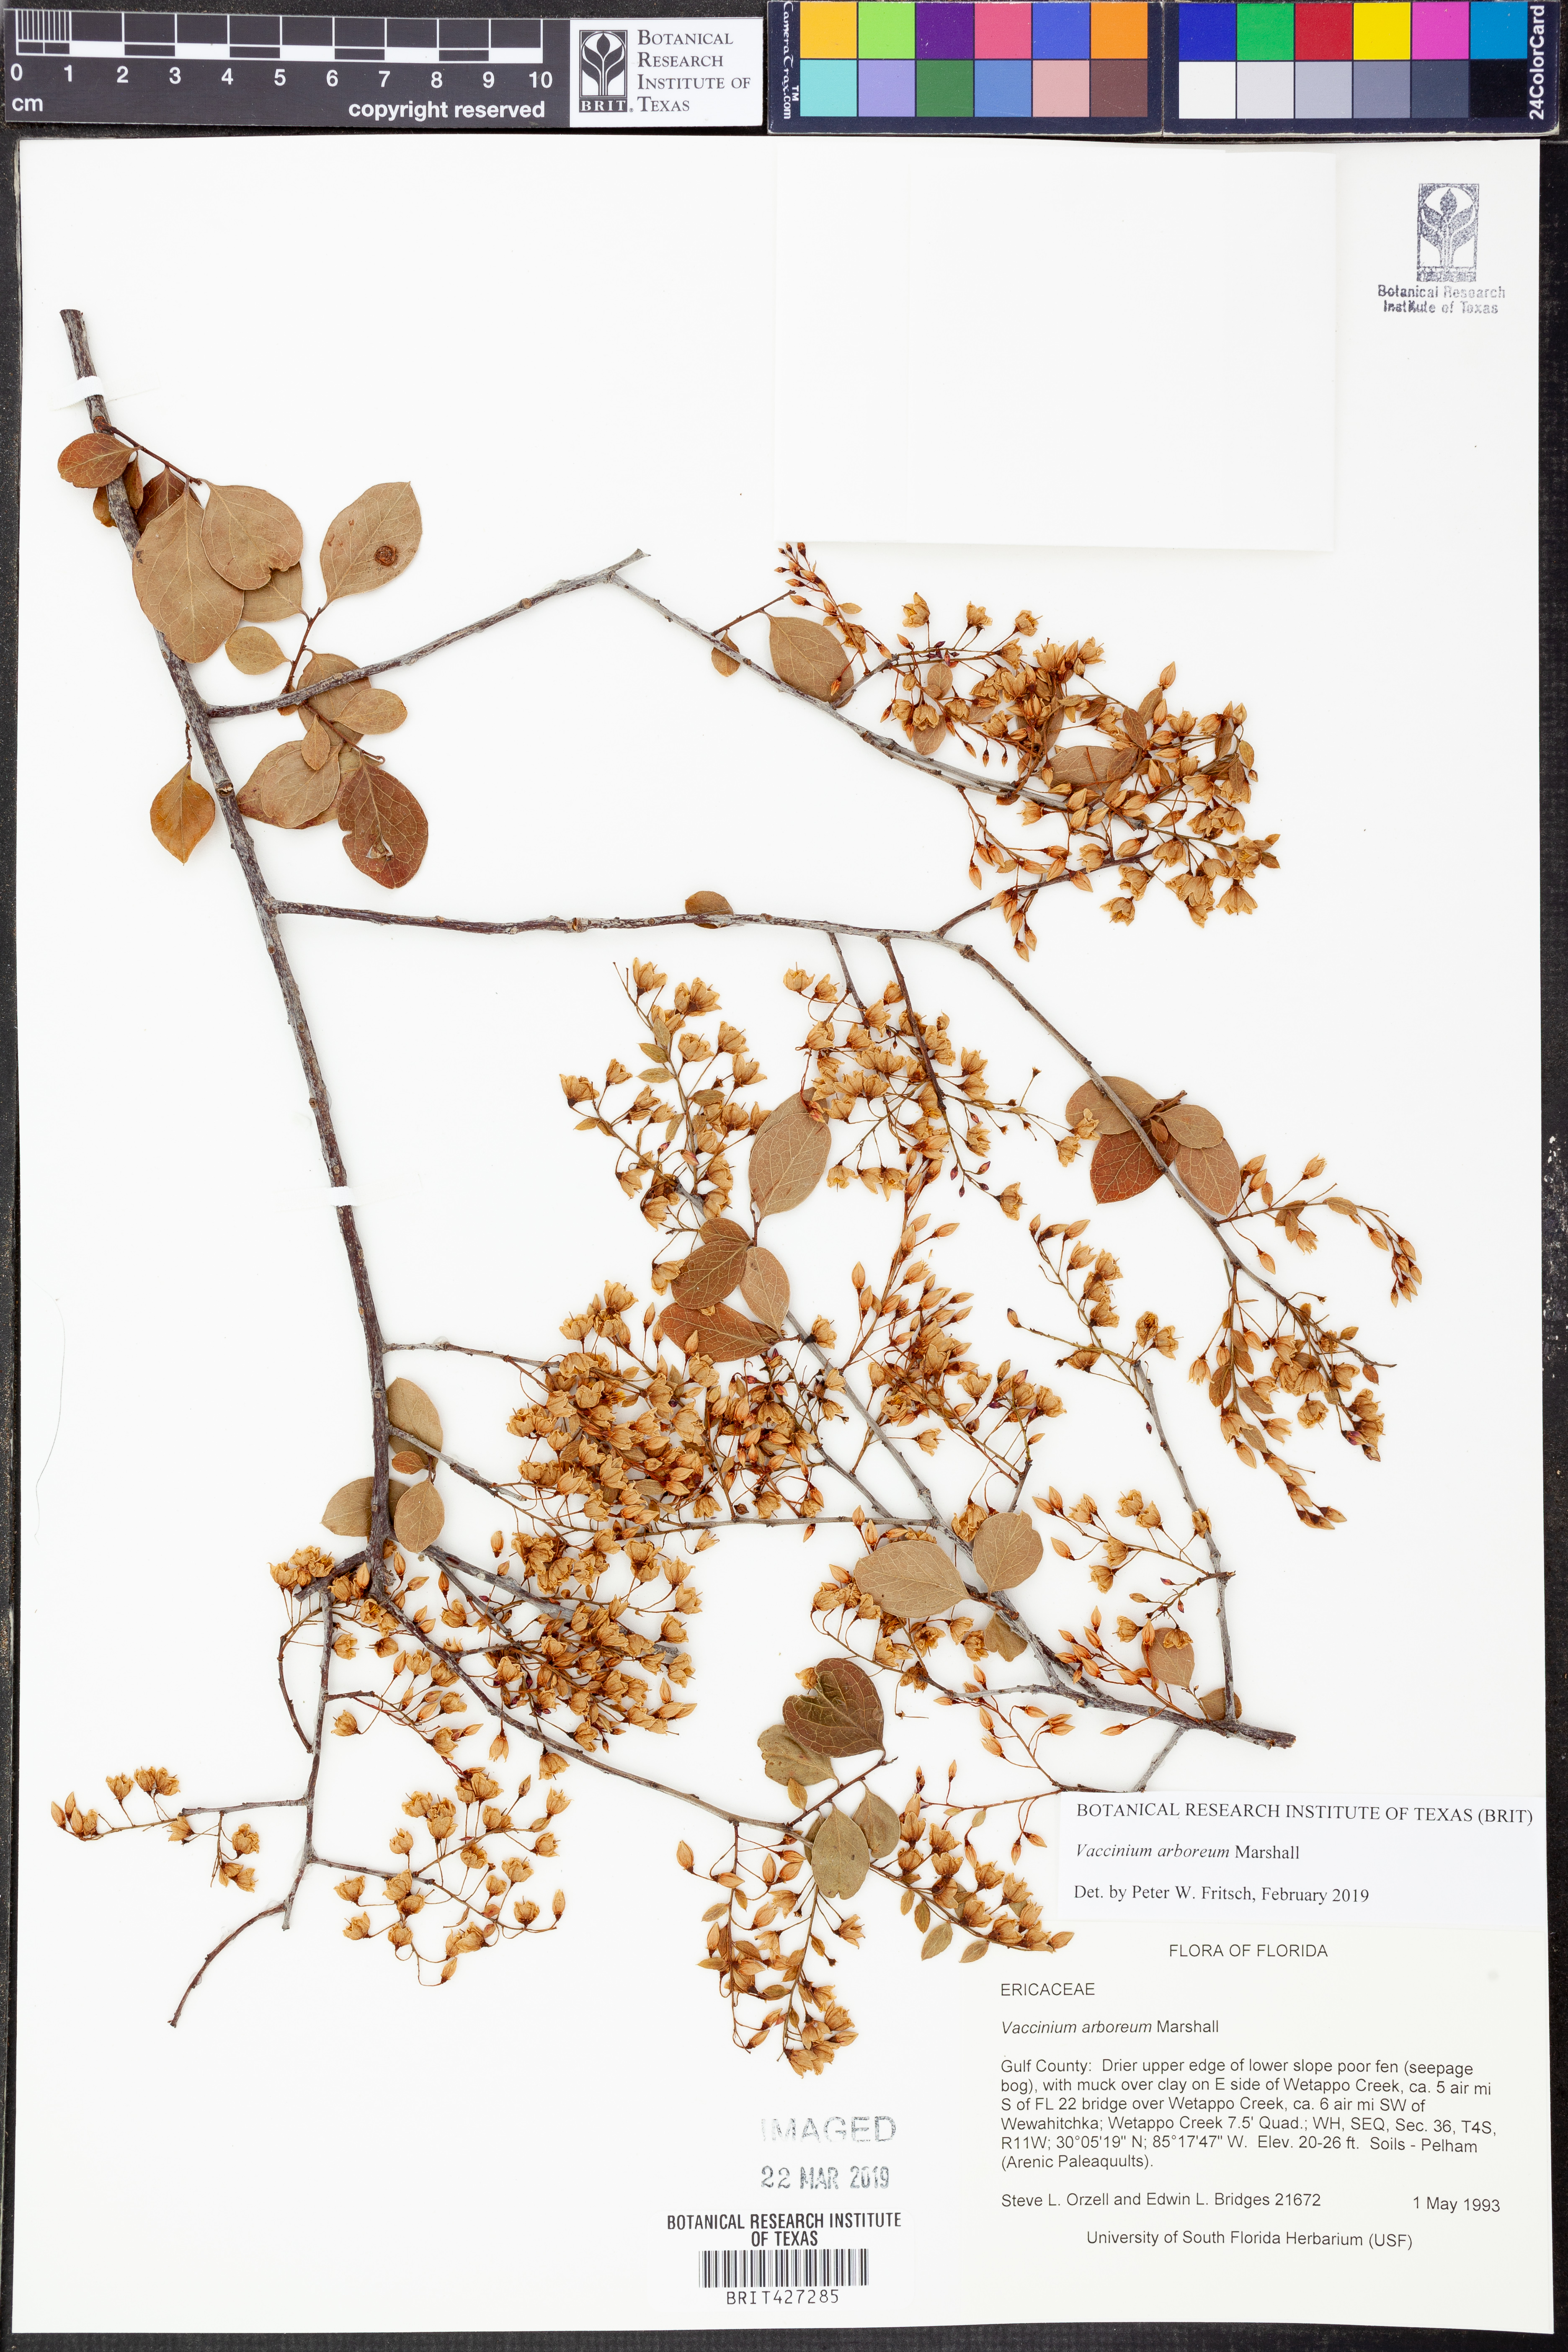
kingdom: Plantae
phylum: Tracheophyta
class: Magnoliopsida
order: Ericales
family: Ericaceae
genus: Vaccinium
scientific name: Vaccinium arboreum
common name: Farkleberry
